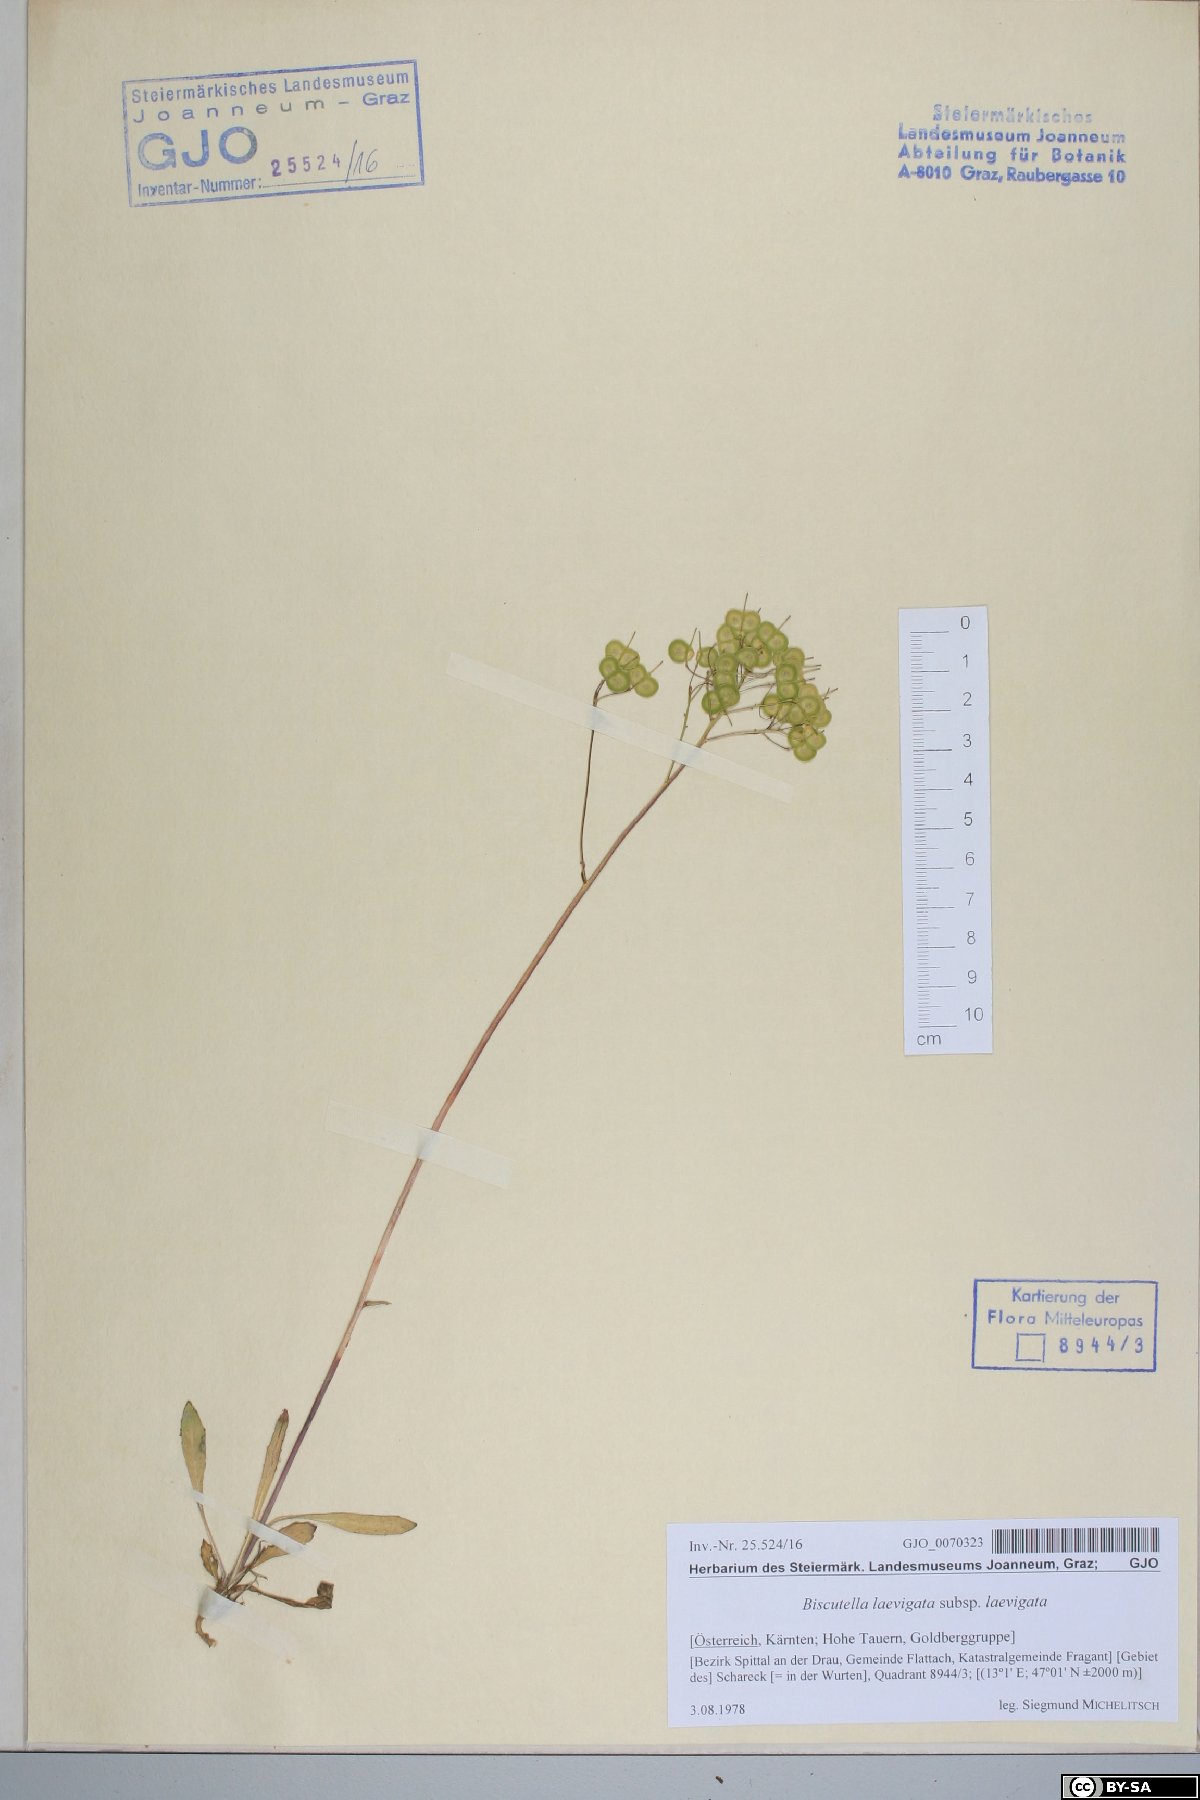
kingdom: Plantae
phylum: Tracheophyta
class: Magnoliopsida
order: Brassicales
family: Brassicaceae
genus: Biscutella
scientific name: Biscutella laevigata
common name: Buckler mustard
